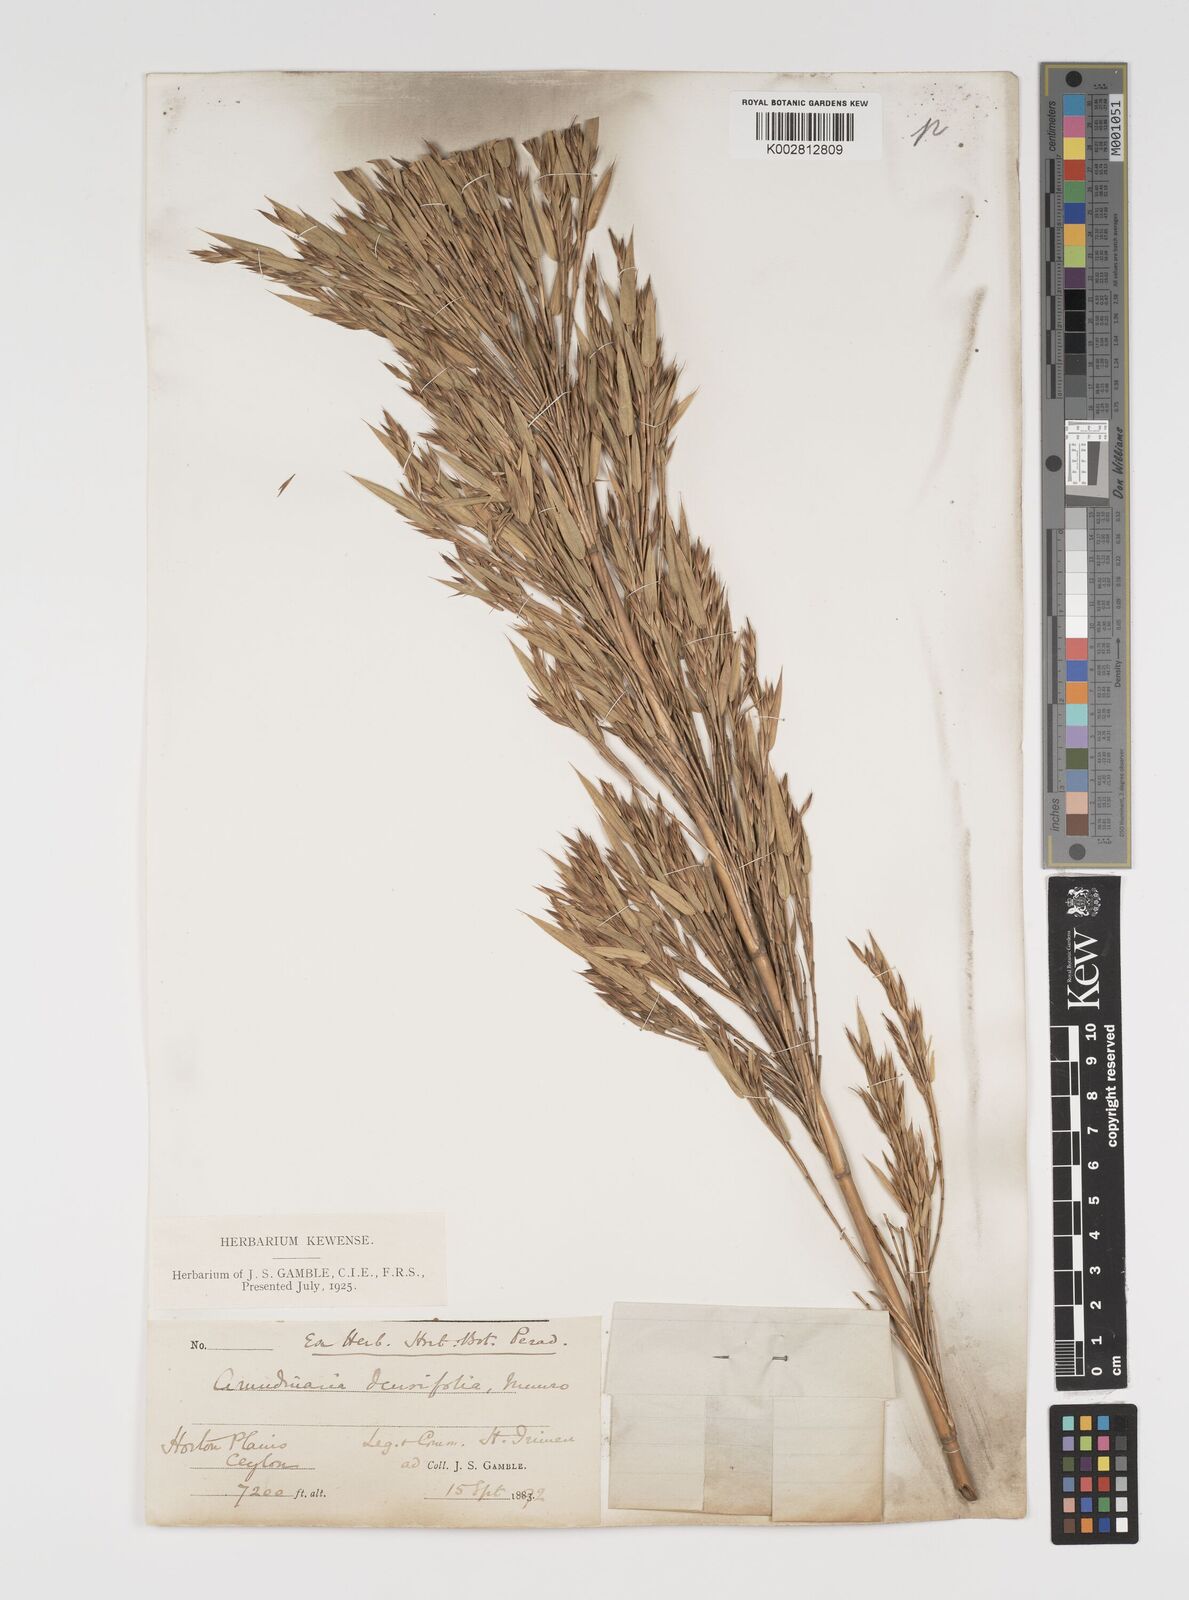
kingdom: Plantae
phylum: Tracheophyta
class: Liliopsida
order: Poales
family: Poaceae
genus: Kuruna
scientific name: Kuruna densifolia
